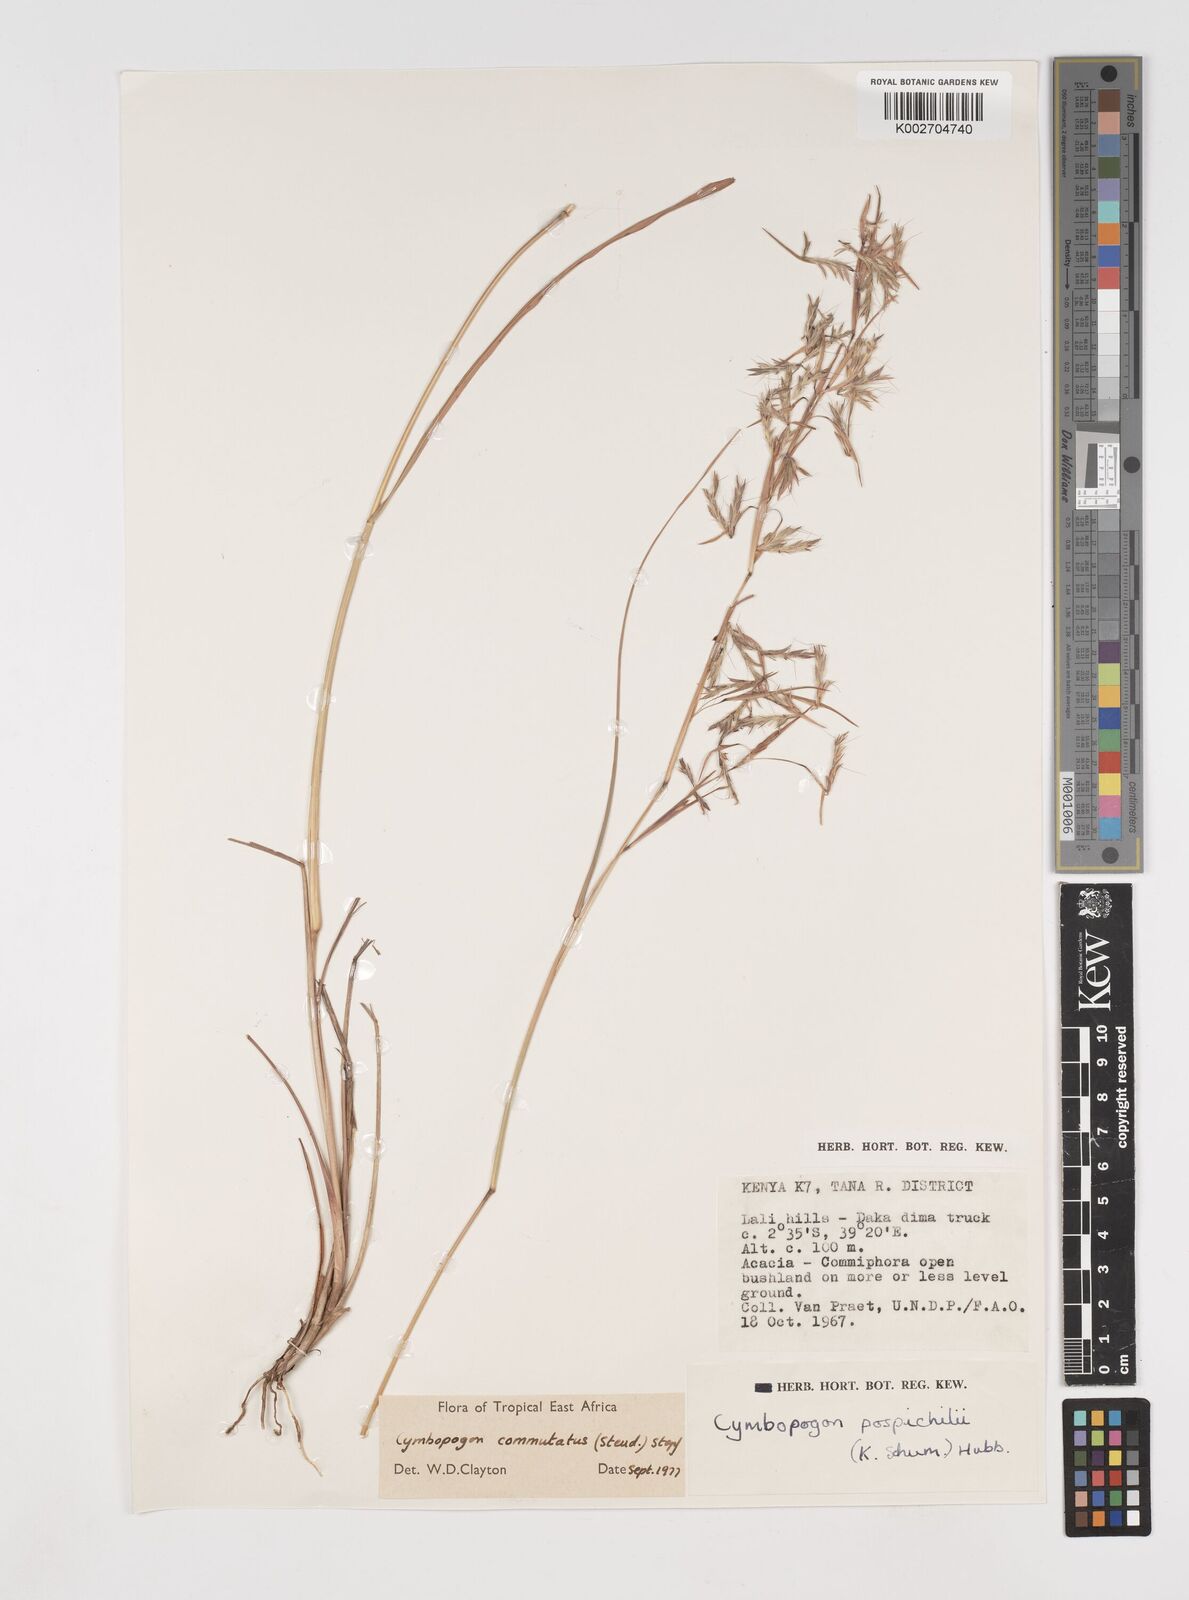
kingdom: Plantae
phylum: Tracheophyta
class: Liliopsida
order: Poales
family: Poaceae
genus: Cymbopogon
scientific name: Cymbopogon commutatus
